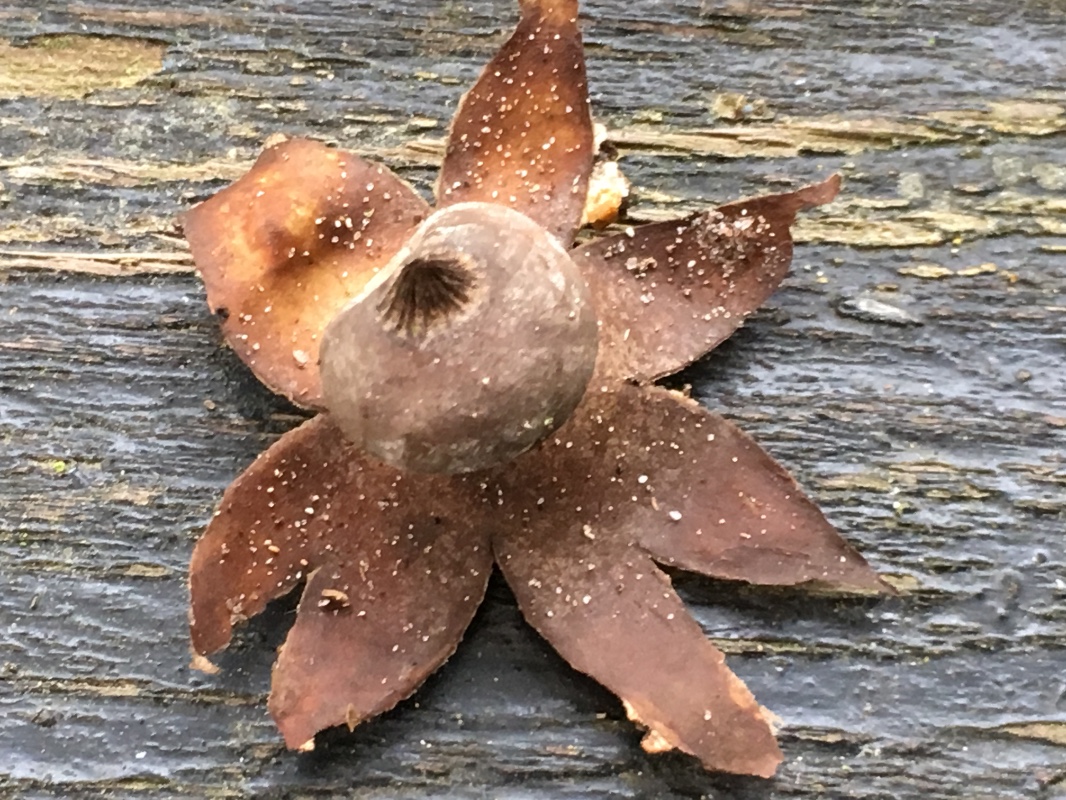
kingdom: Fungi
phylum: Basidiomycota
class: Agaricomycetes
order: Geastrales
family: Geastraceae
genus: Geastrum
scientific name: Geastrum striatum
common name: krave-stjernebold
